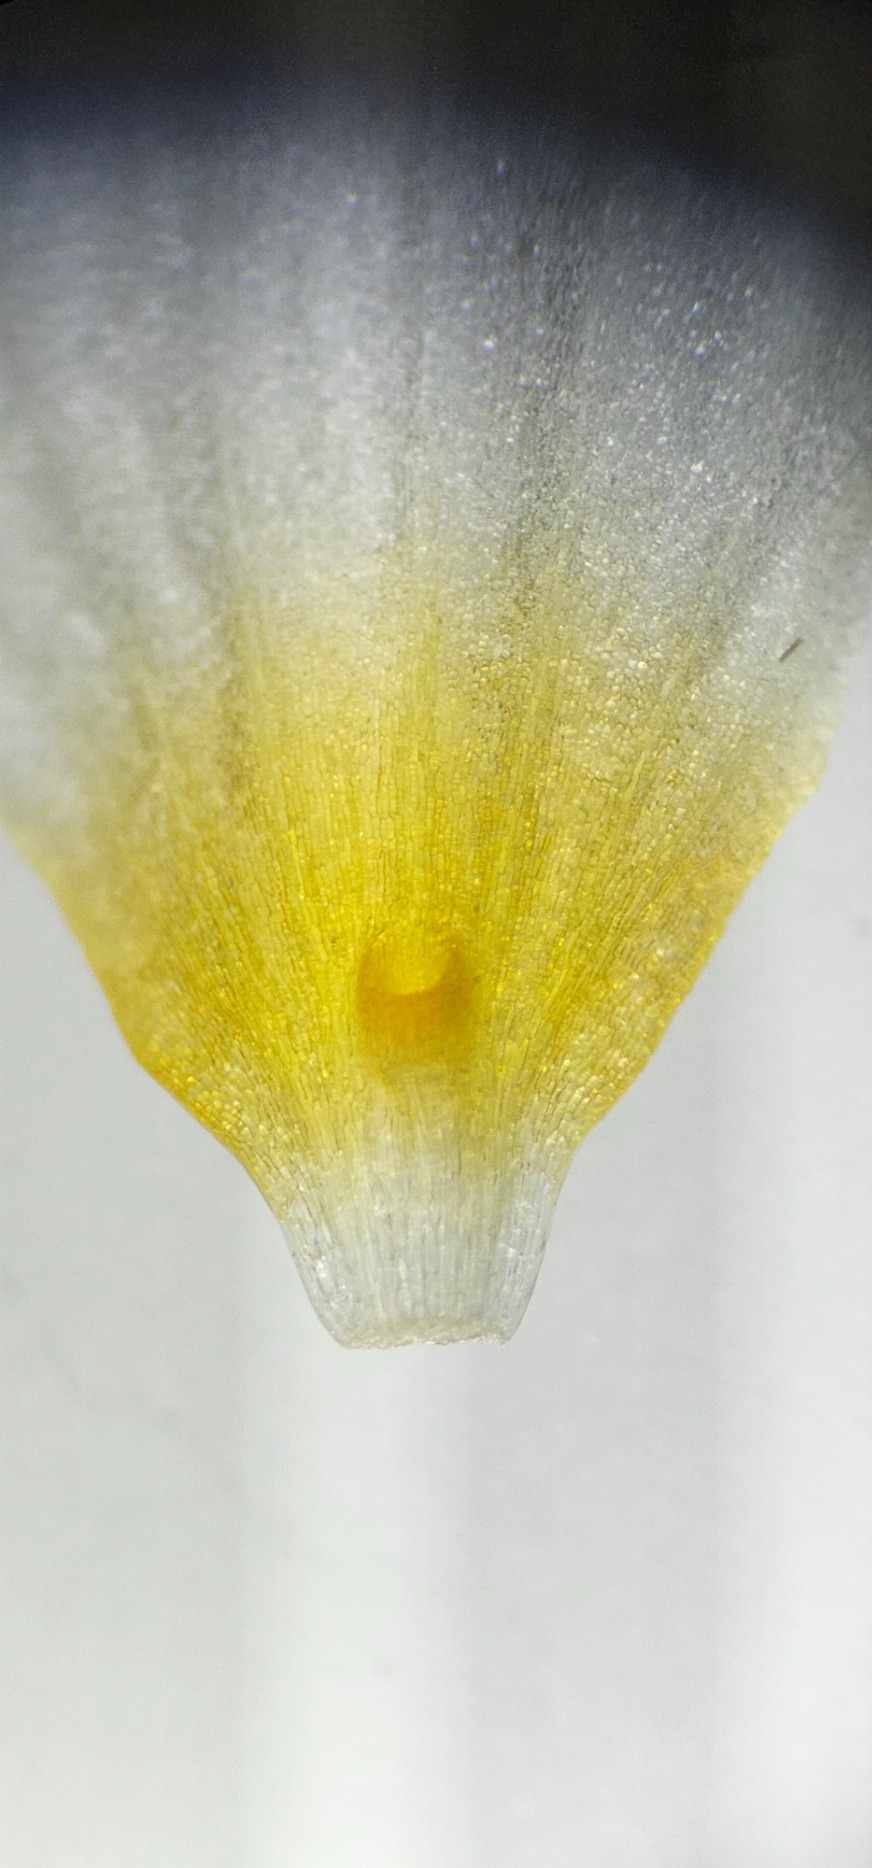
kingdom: Plantae
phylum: Tracheophyta
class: Magnoliopsida
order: Ranunculales
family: Ranunculaceae
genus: Ranunculus
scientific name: Ranunculus aquatilis
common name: Almindelig vandranunkel (varietet)
